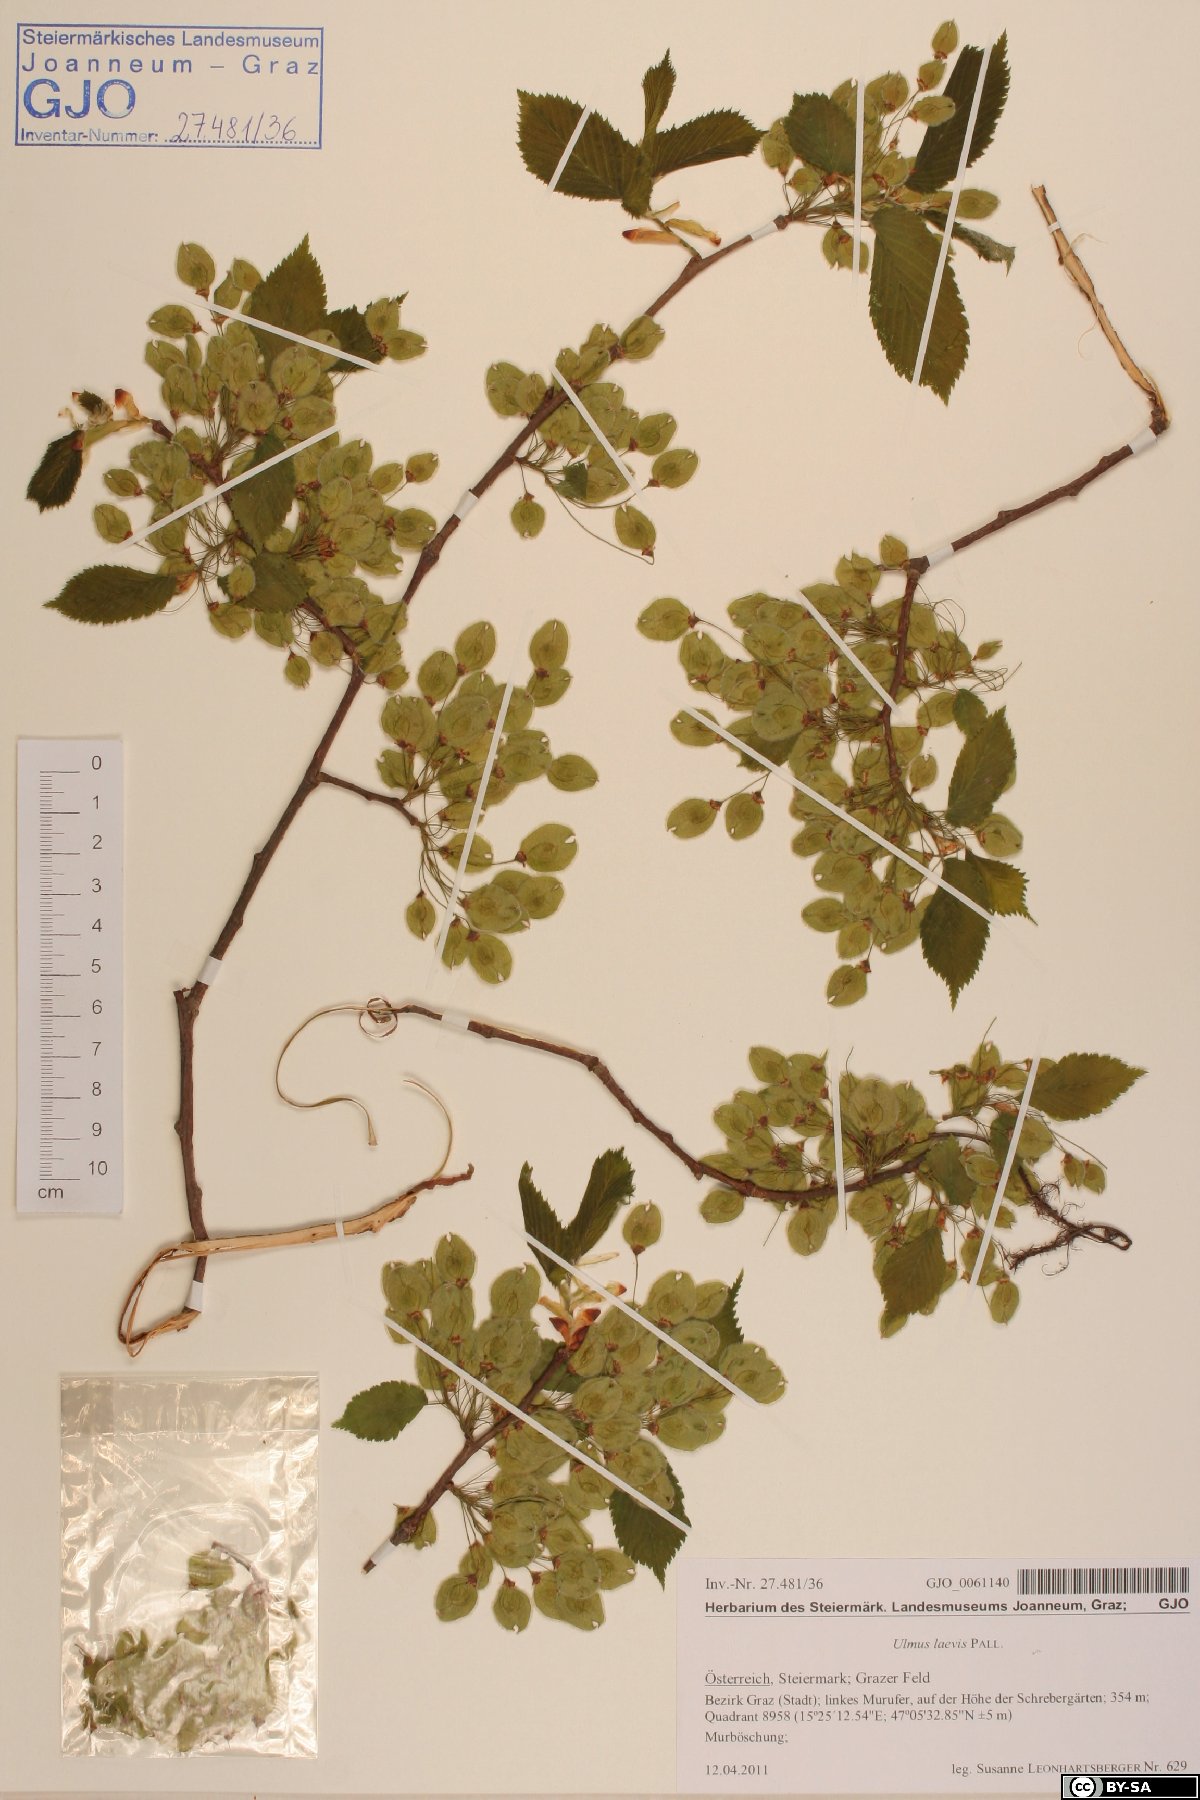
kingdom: Plantae
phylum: Tracheophyta
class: Magnoliopsida
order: Rosales
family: Ulmaceae
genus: Ulmus
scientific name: Ulmus laevis
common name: European white-elm
